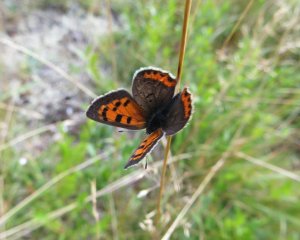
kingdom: Animalia
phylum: Arthropoda
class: Insecta
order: Lepidoptera
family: Lycaenidae
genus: Lycaena
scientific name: Lycaena phlaeas
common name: American Copper
